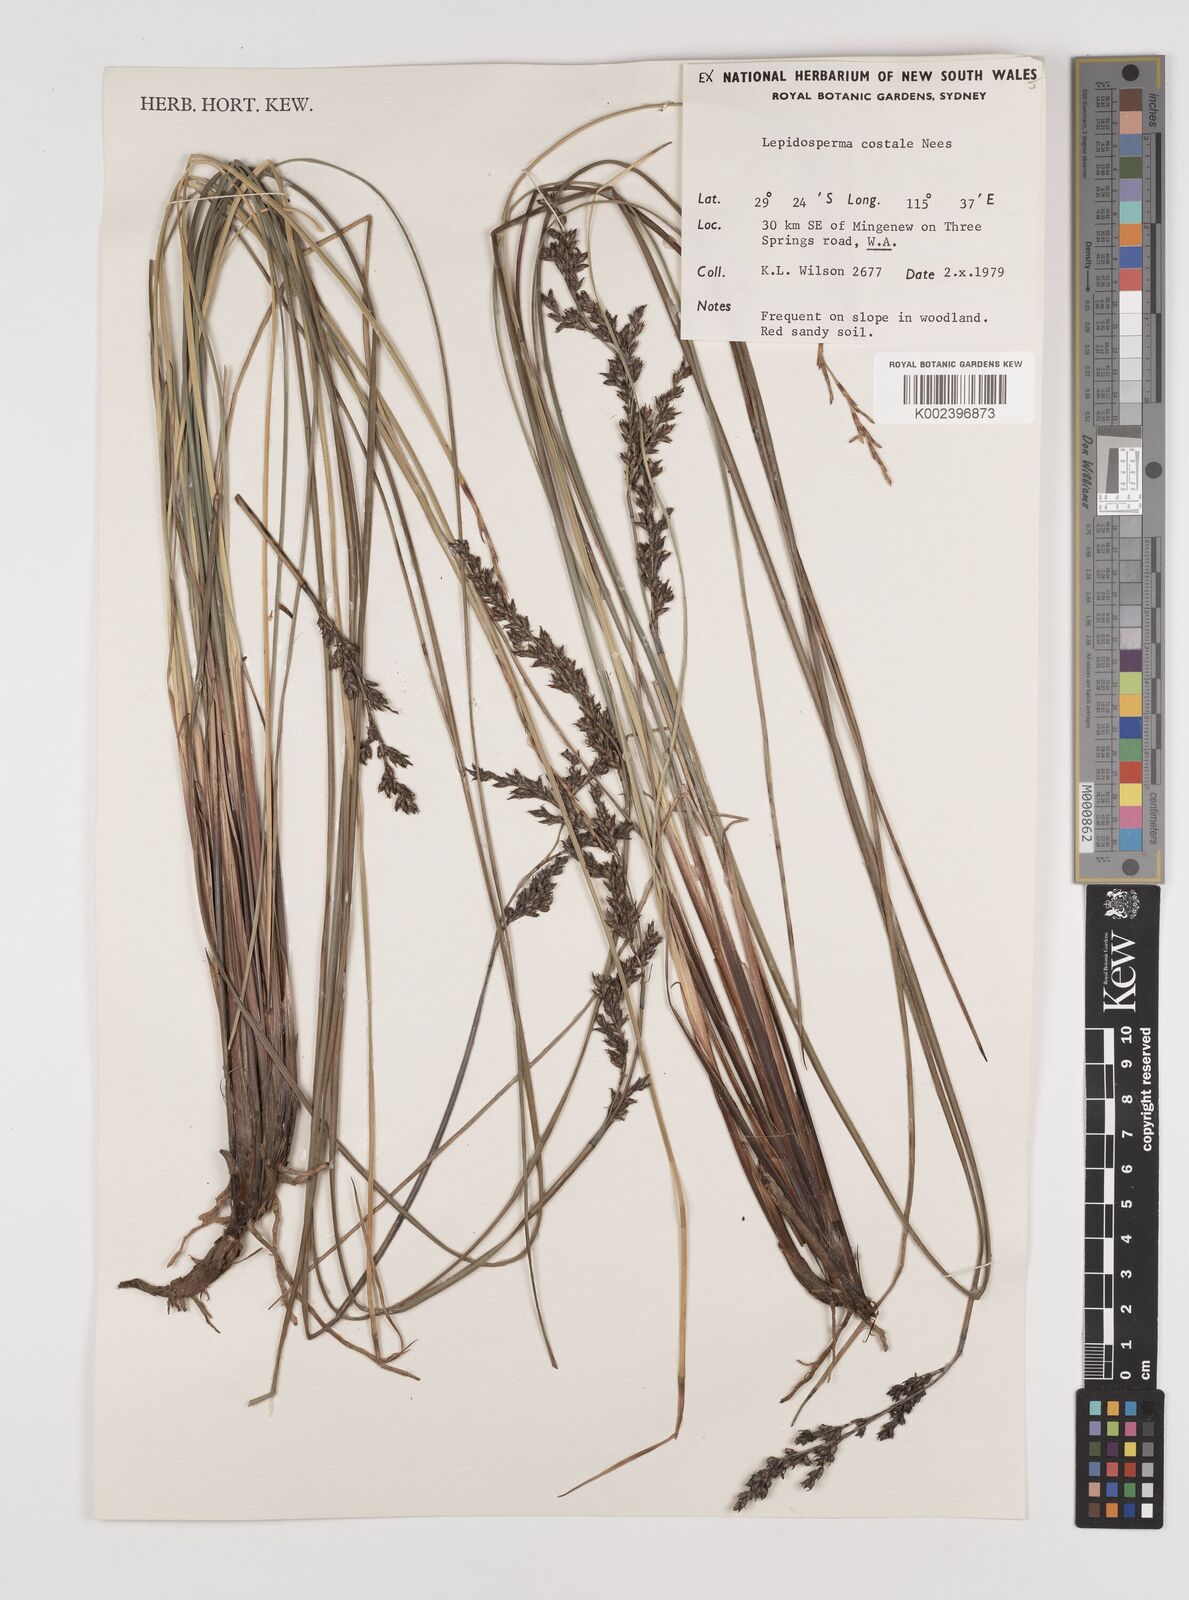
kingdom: Plantae
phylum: Tracheophyta
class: Liliopsida
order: Poales
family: Cyperaceae
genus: Lepidosperma
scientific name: Lepidosperma costale
